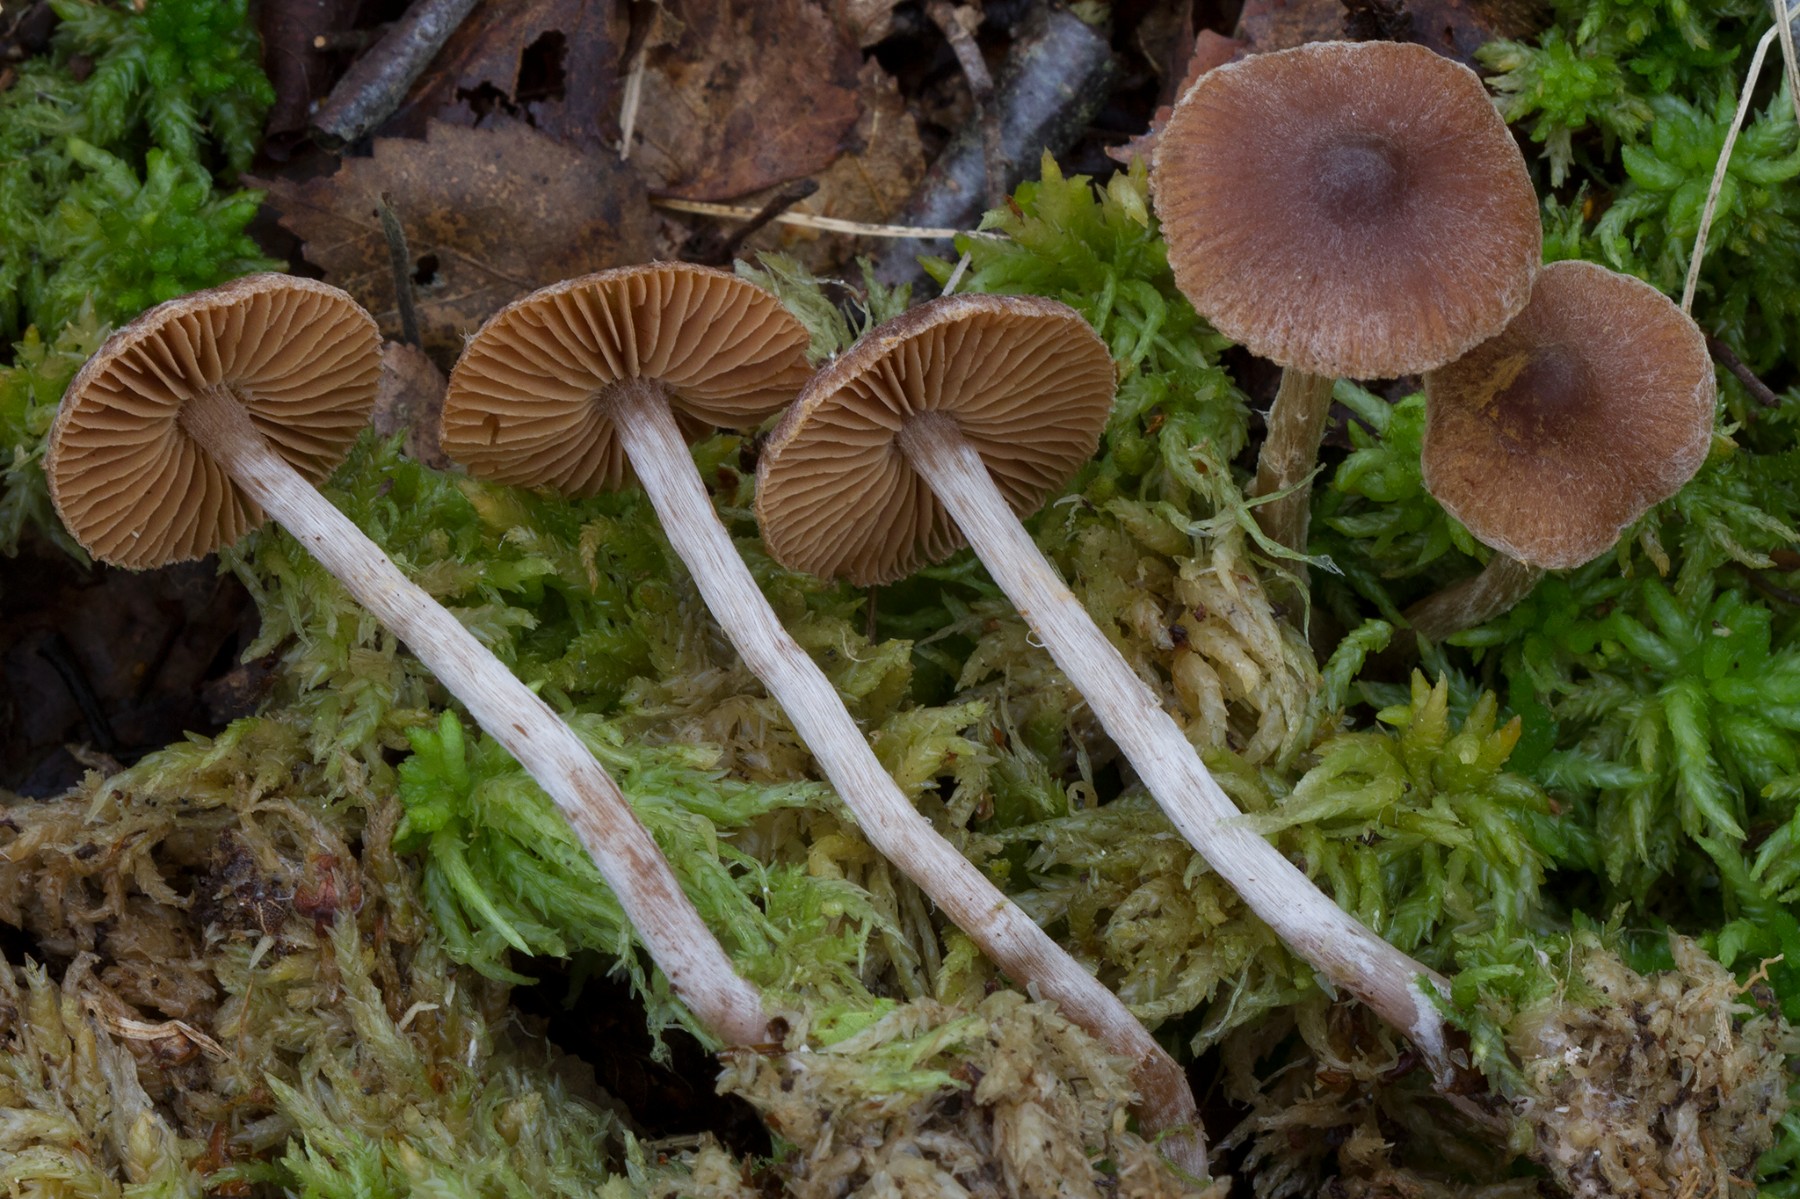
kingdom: Fungi
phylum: Basidiomycota
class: Agaricomycetes
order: Agaricales
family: Cortinariaceae
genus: Cortinarius
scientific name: Cortinarius hirtus
